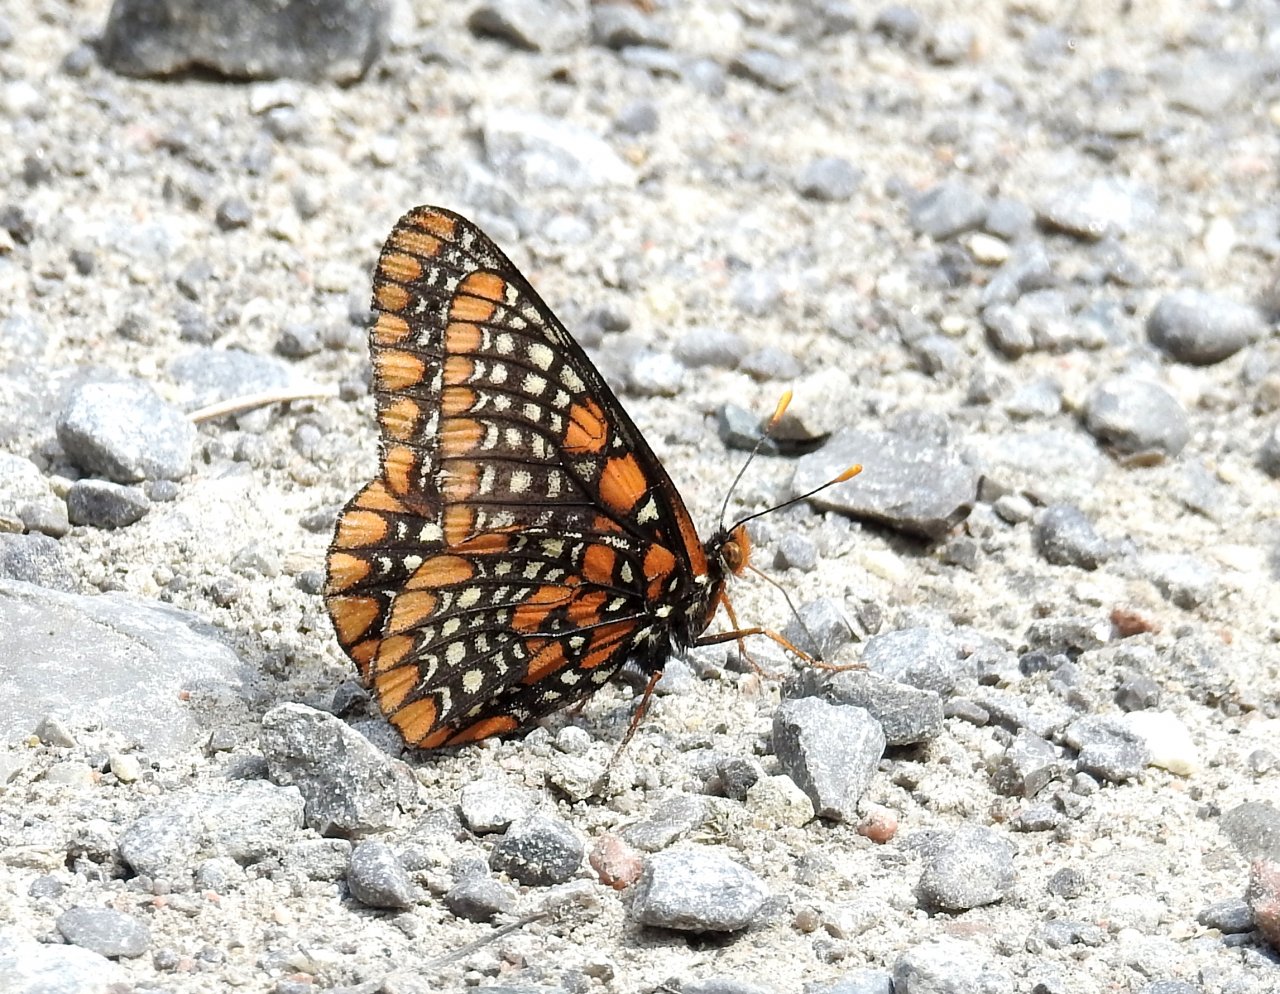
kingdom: Animalia
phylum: Arthropoda
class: Insecta
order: Lepidoptera
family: Nymphalidae
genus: Euphydryas
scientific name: Euphydryas phaeton
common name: Baltimore Checkerspot
